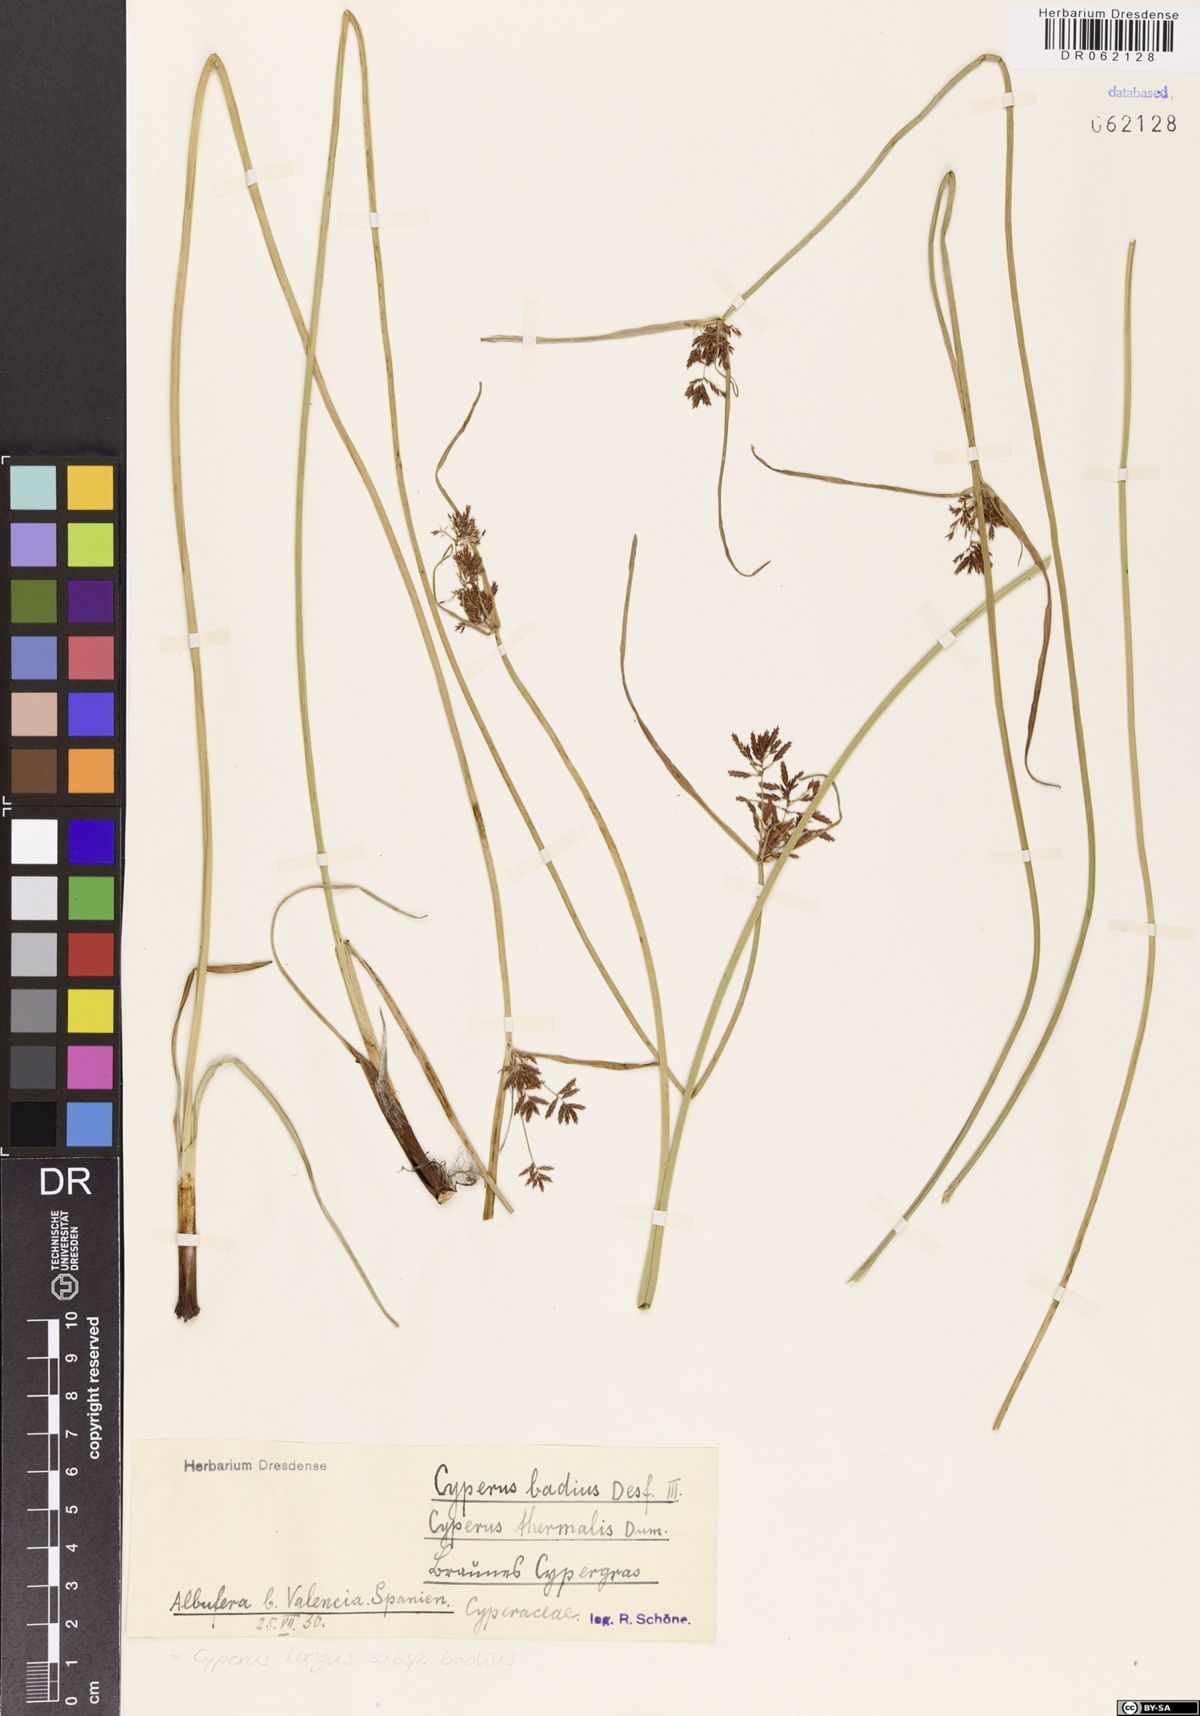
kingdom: Plantae
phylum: Tracheophyta
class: Liliopsida
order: Poales
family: Cyperaceae
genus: Cyperus
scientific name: Cyperus longus
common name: Galingale
